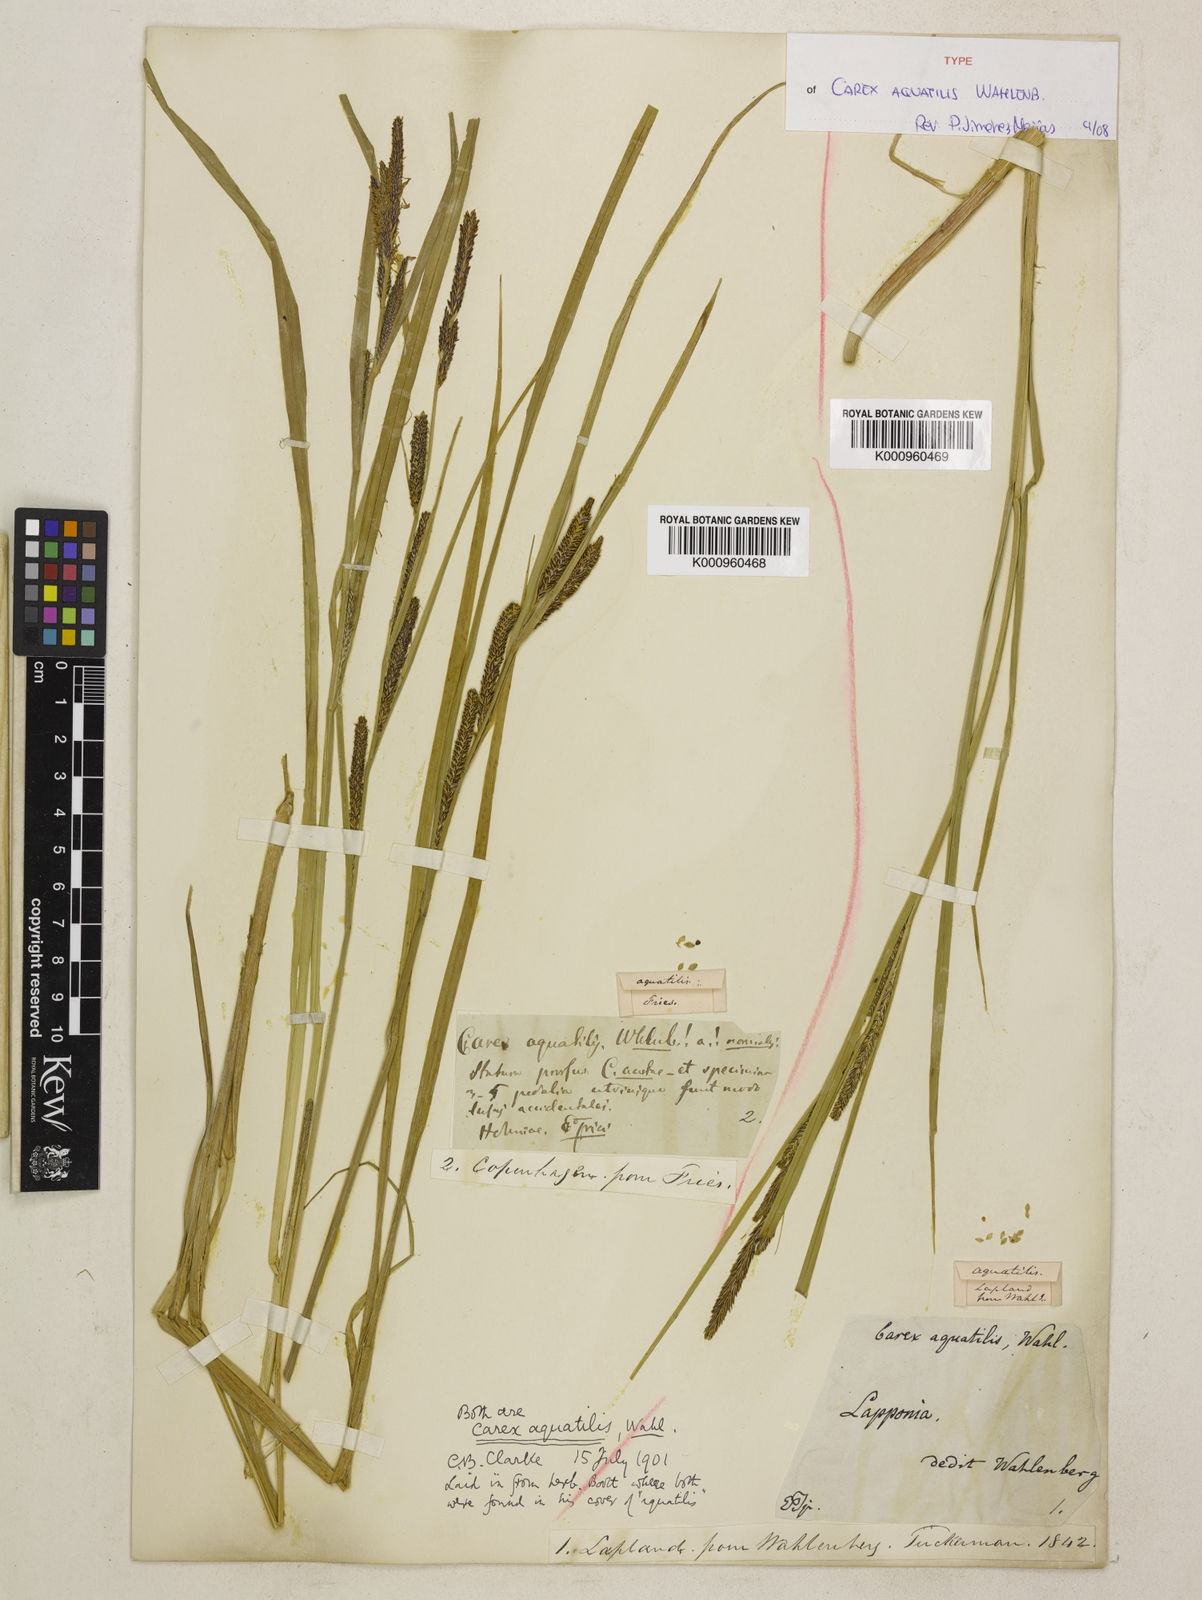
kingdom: Plantae
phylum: Tracheophyta
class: Liliopsida
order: Poales
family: Cyperaceae
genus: Carex
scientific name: Carex aquatilis
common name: Water sedge
